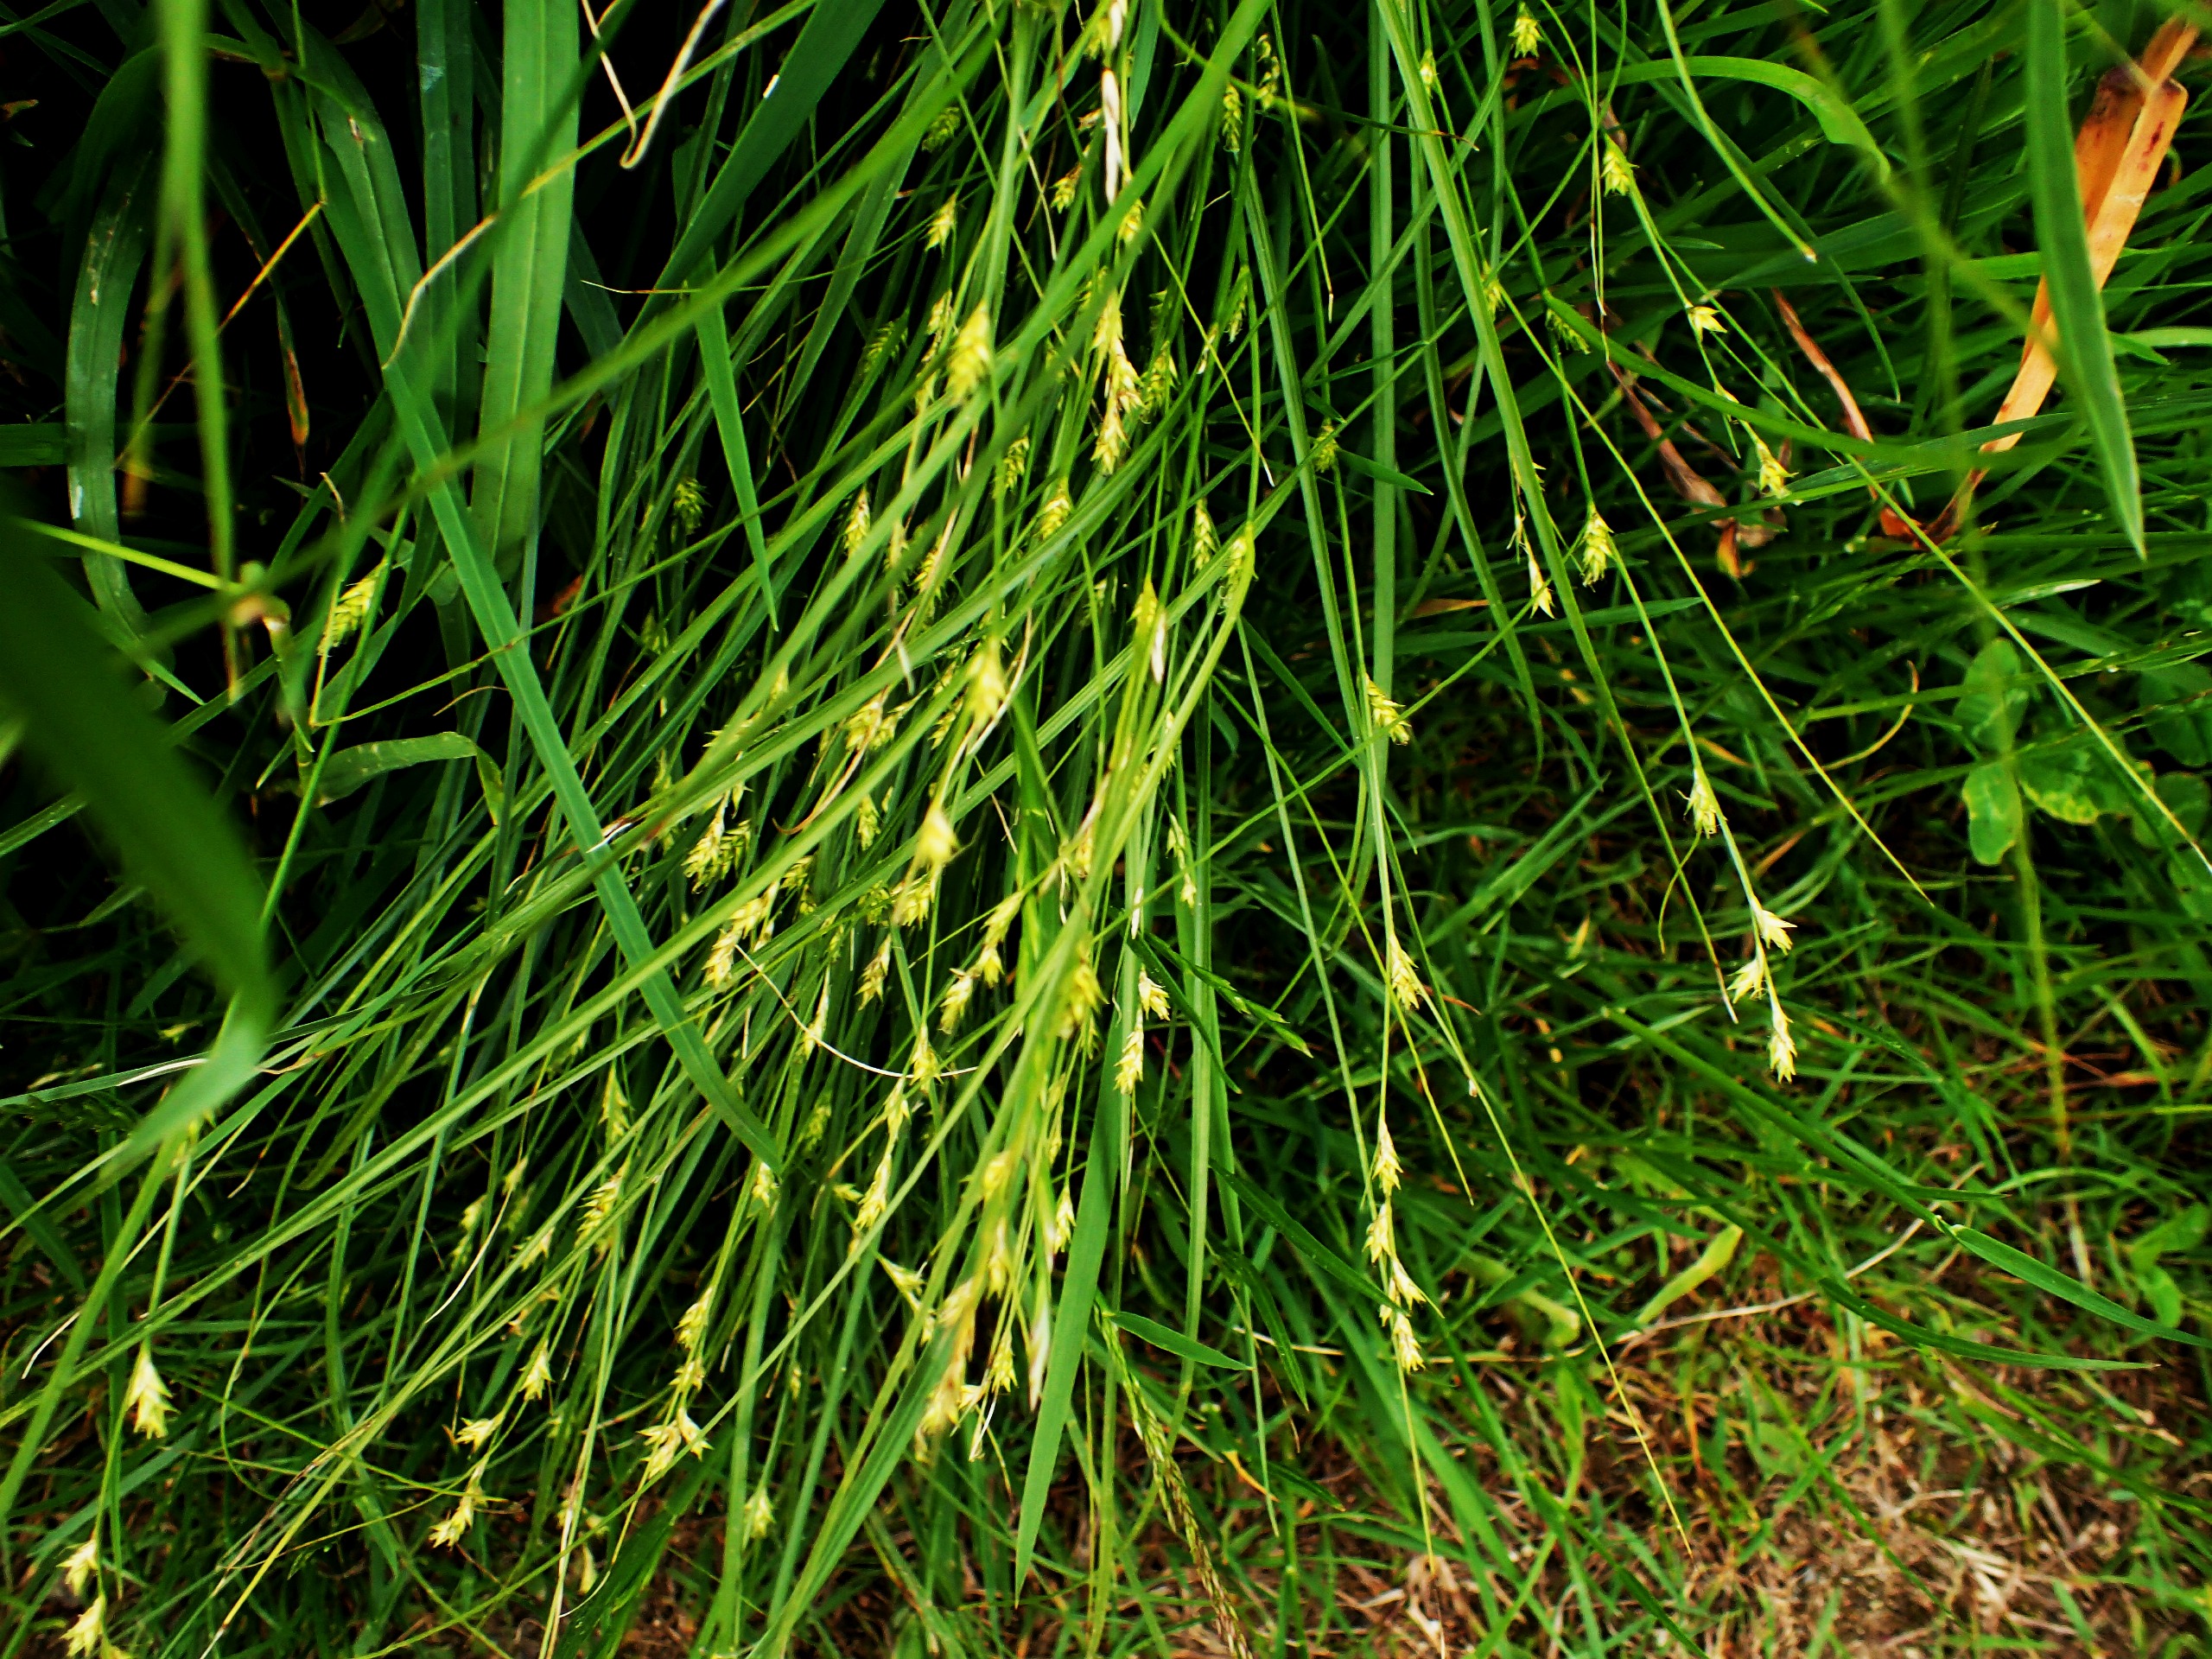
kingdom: Plantae
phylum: Tracheophyta
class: Liliopsida
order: Poales
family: Cyperaceae
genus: Carex
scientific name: Carex remota
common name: Akselblomstret star
